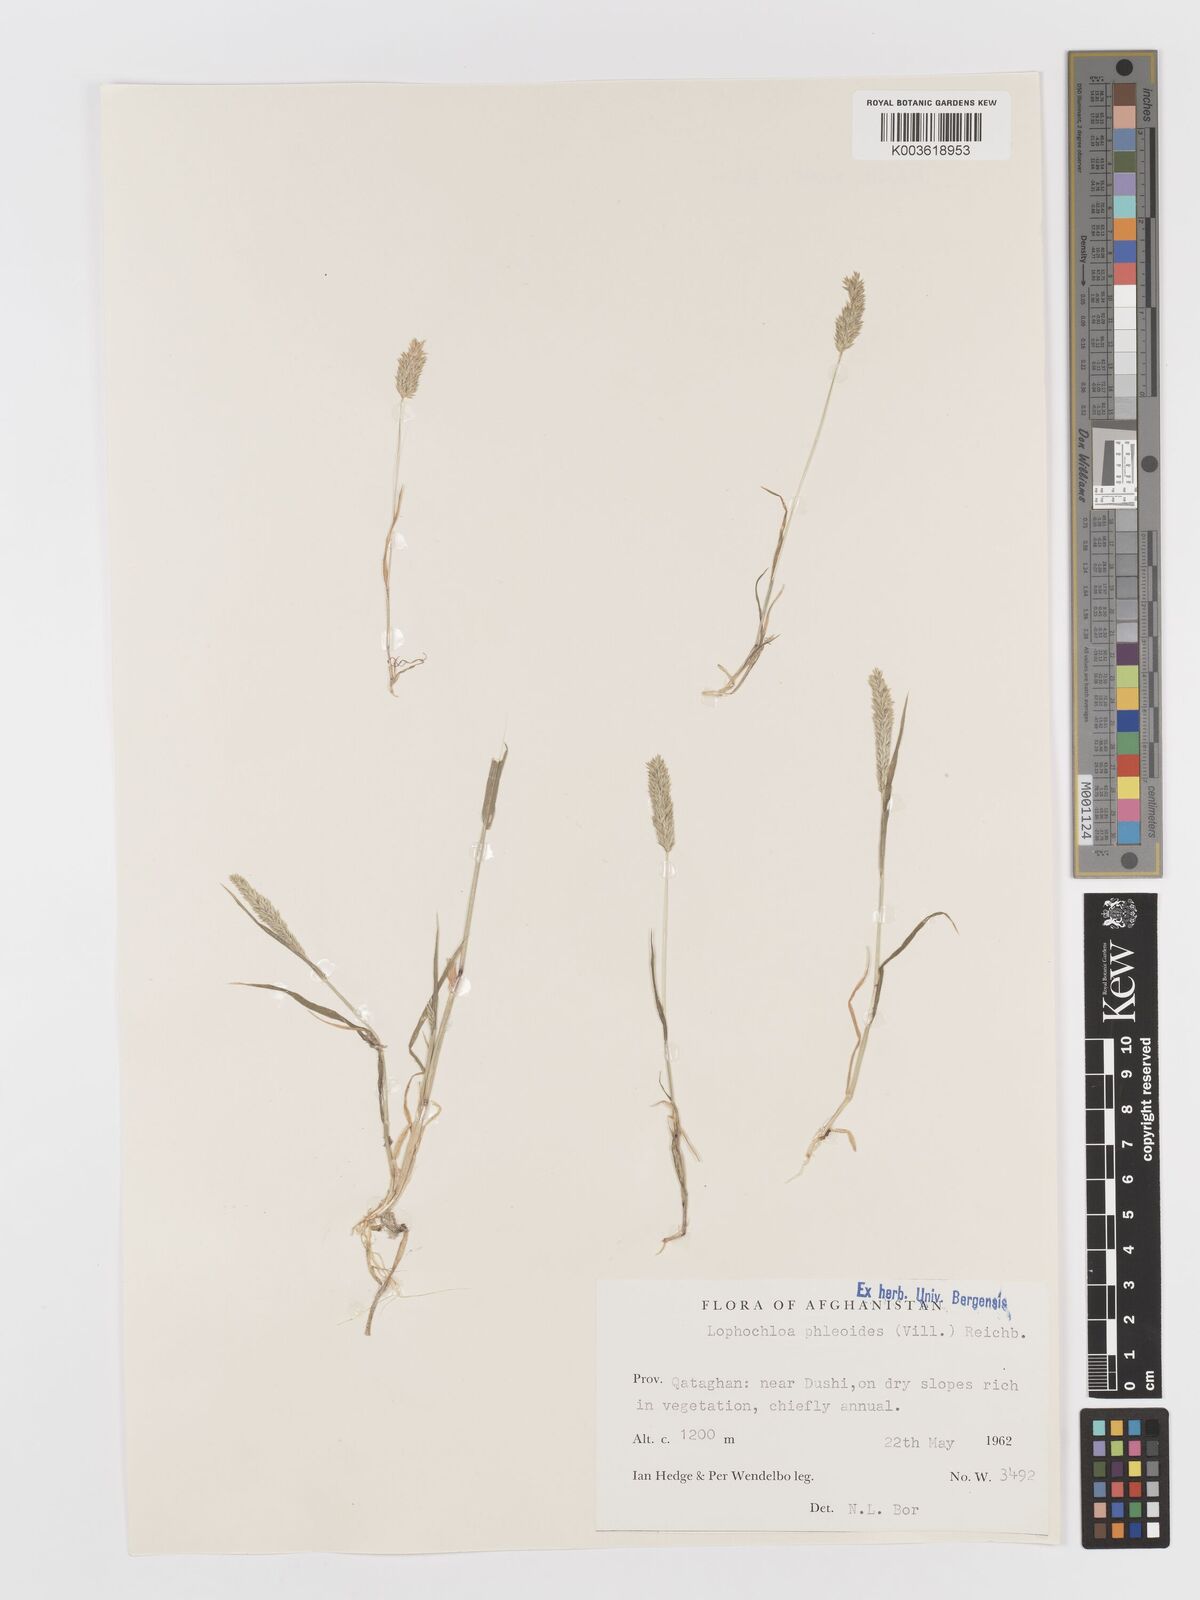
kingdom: Plantae
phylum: Tracheophyta
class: Liliopsida
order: Poales
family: Poaceae
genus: Rostraria
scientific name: Rostraria cristata
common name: Mediterranean hair-grass
